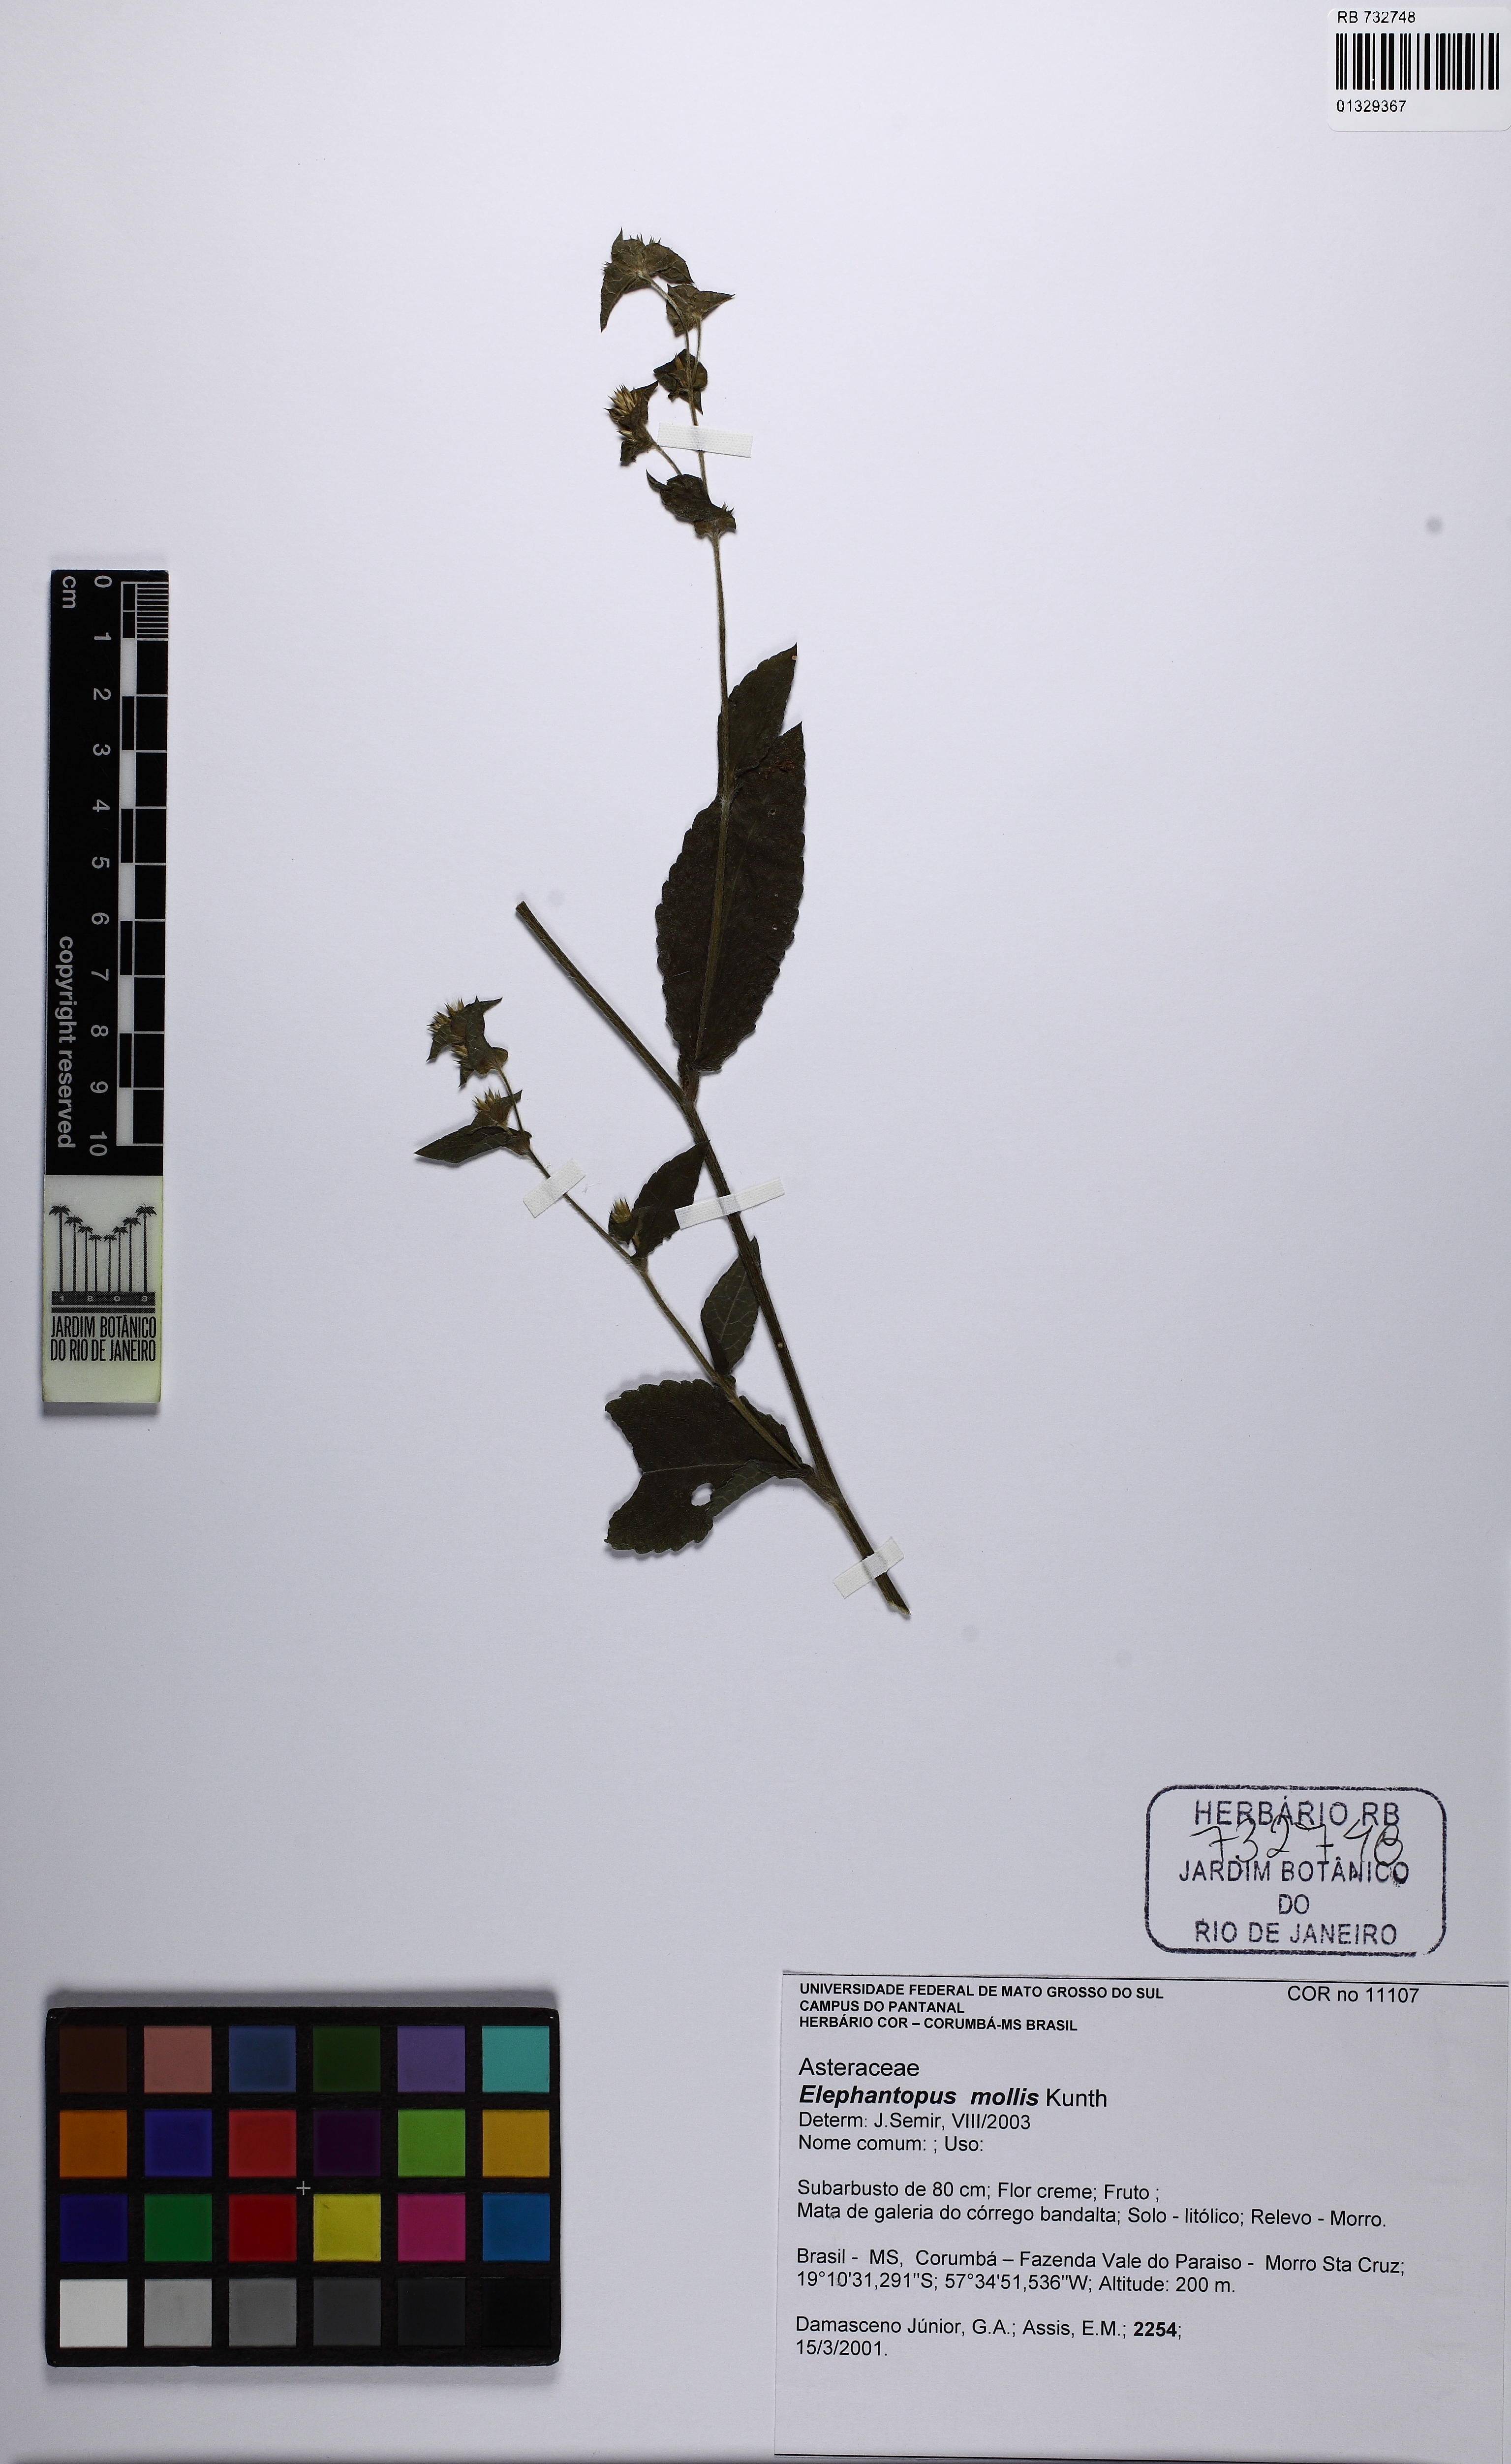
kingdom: Plantae
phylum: Tracheophyta
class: Magnoliopsida
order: Asterales
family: Asteraceae
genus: Elephantopus
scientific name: Elephantopus mollis
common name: Soft elephantsfoot
